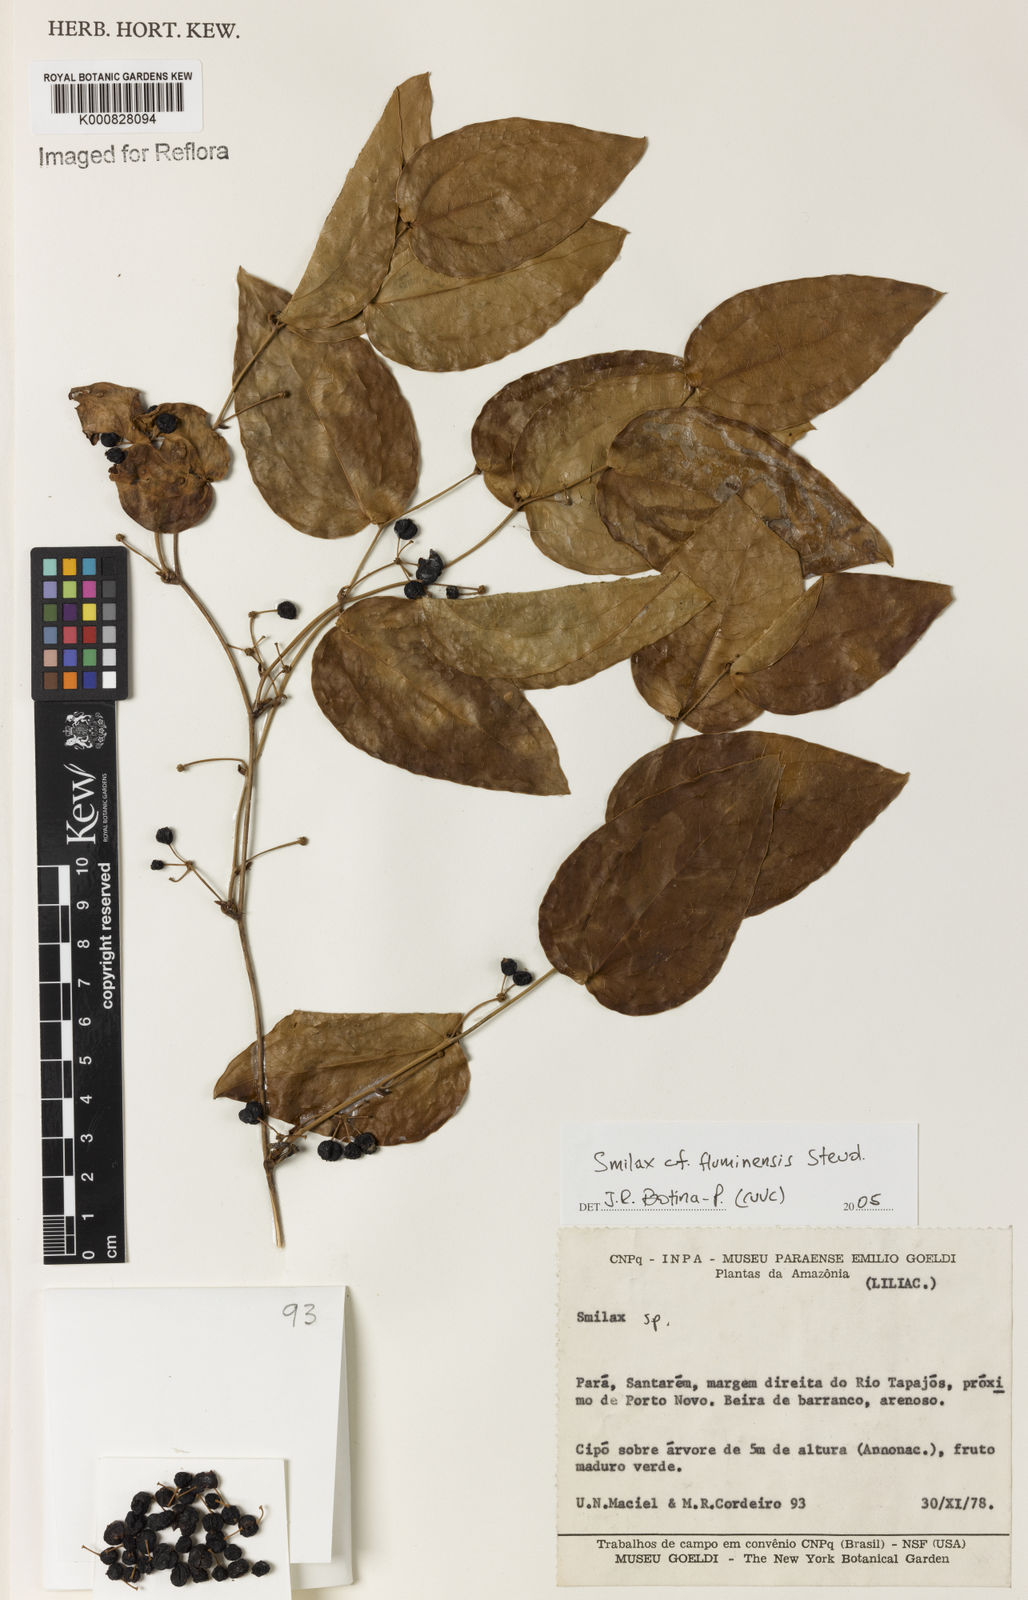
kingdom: Plantae
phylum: Tracheophyta
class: Liliopsida
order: Liliales
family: Smilacaceae
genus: Smilax
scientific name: Smilax fluminensis
